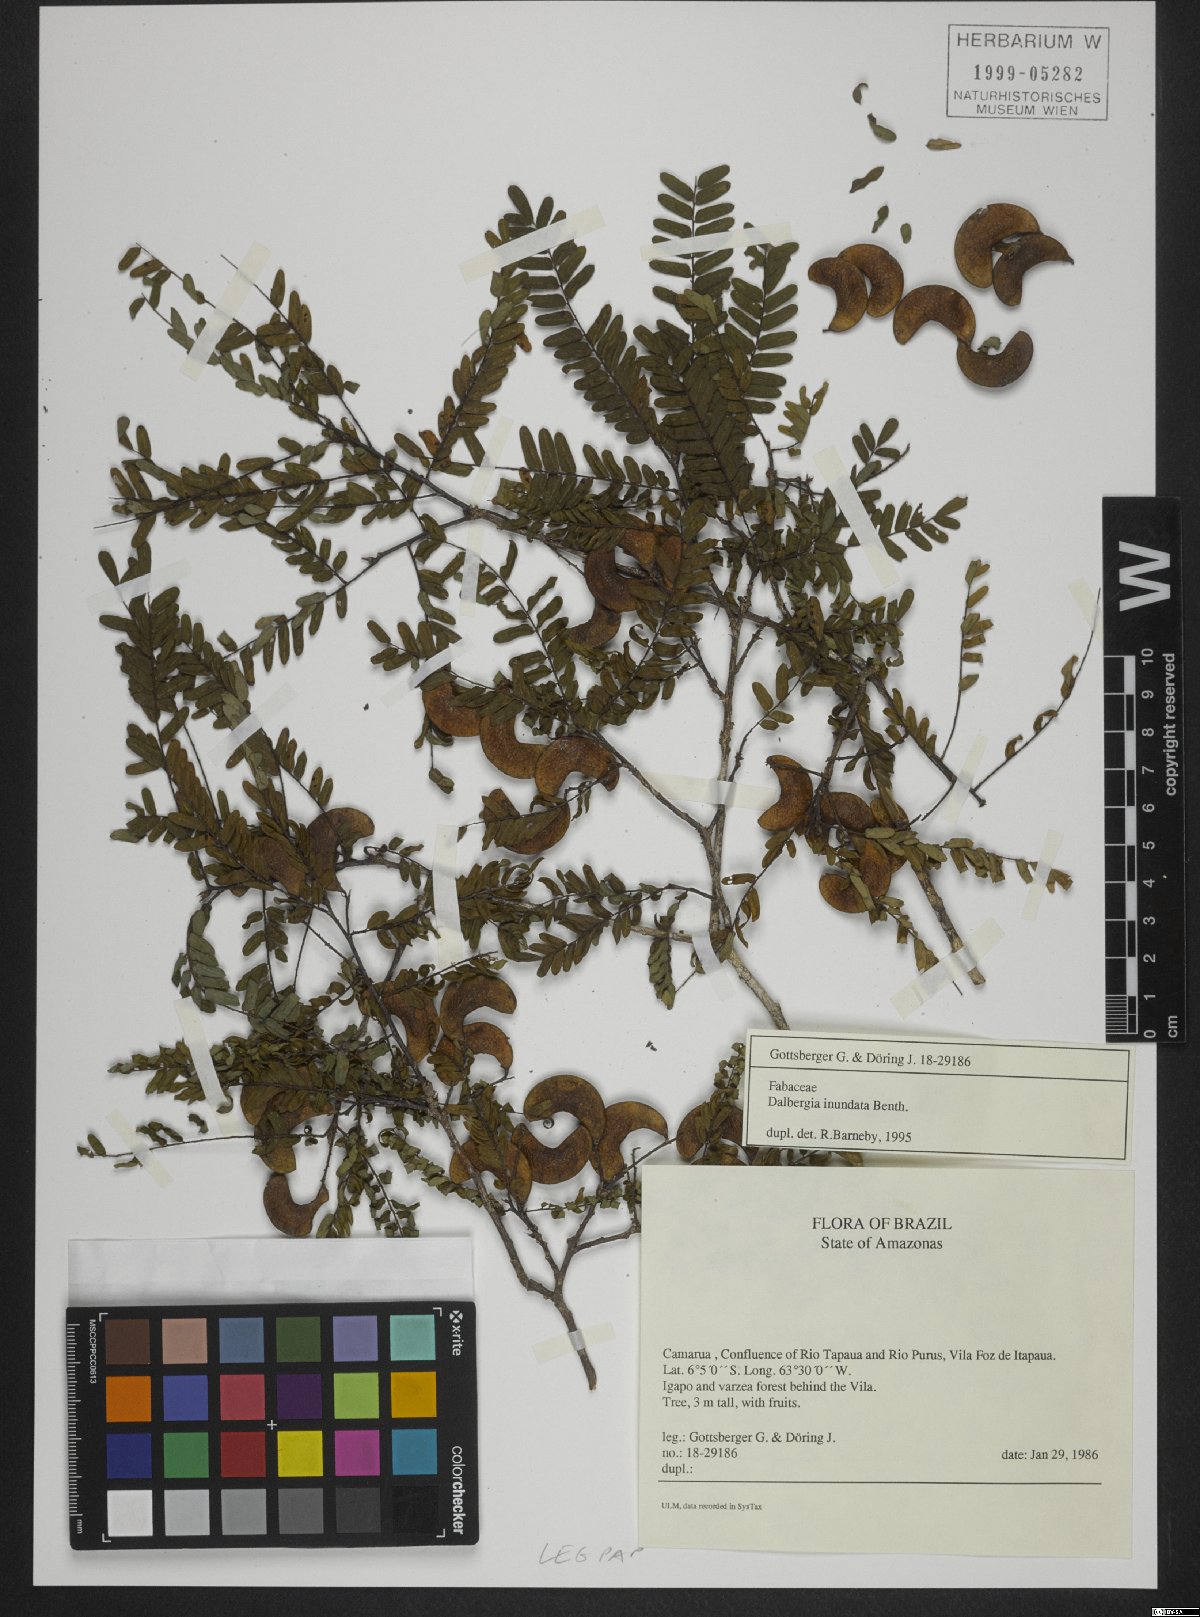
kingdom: Plantae
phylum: Tracheophyta
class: Magnoliopsida
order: Fabales
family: Fabaceae
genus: Dalbergia
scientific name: Dalbergia inundata
